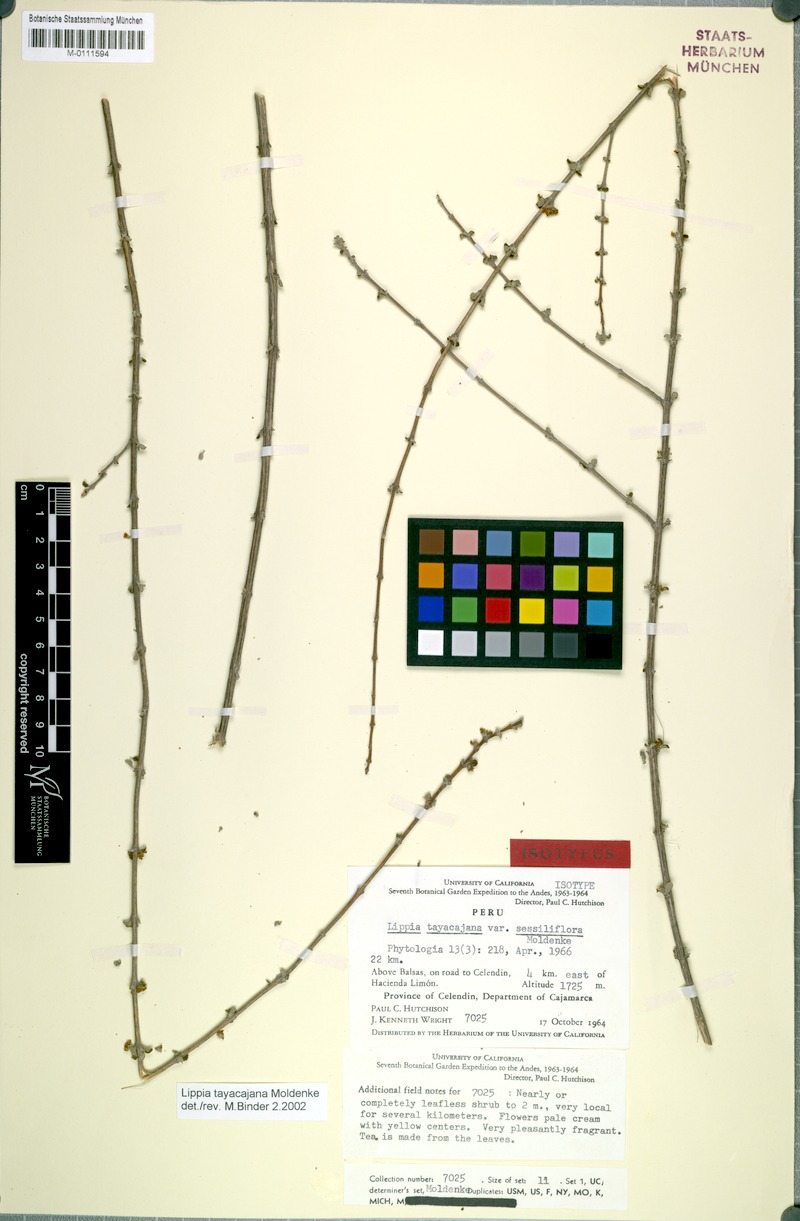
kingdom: Plantae
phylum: Tracheophyta
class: Magnoliopsida
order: Lamiales
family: Verbenaceae
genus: Lippia
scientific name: Lippia tayacajana
